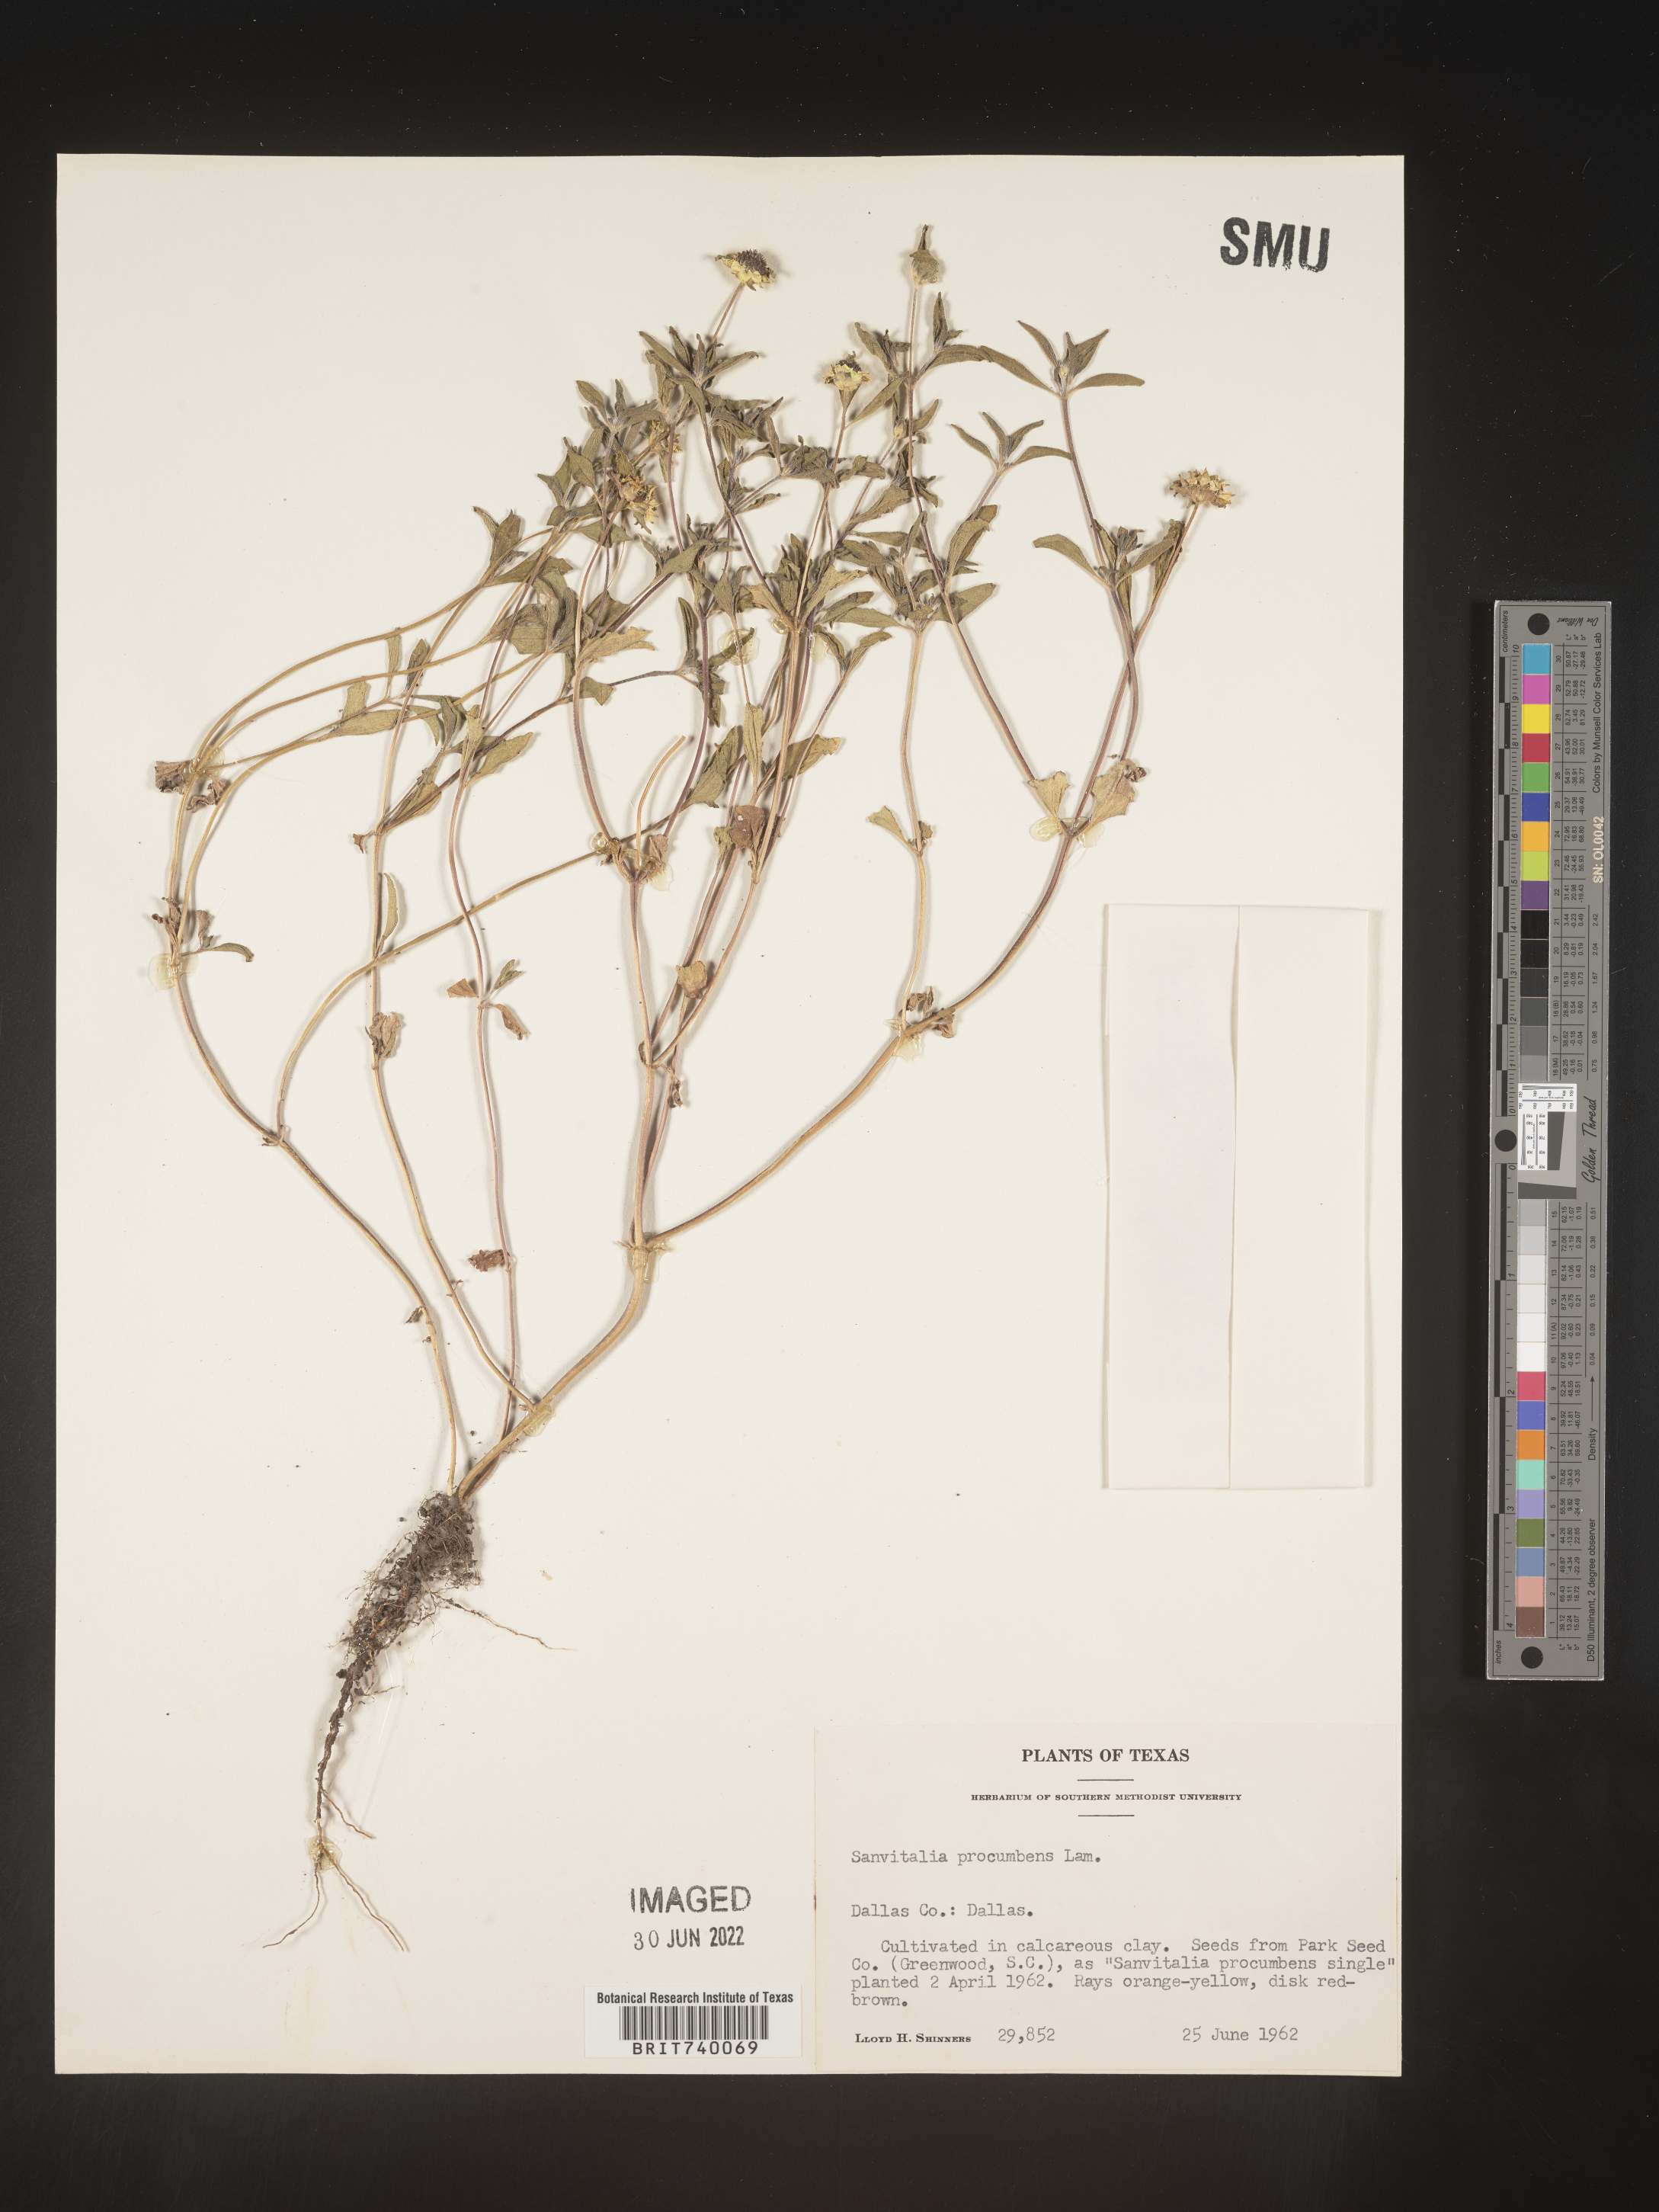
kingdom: Plantae
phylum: Tracheophyta
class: Magnoliopsida
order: Asterales
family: Asteraceae
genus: Sanvitalia
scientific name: Sanvitalia
